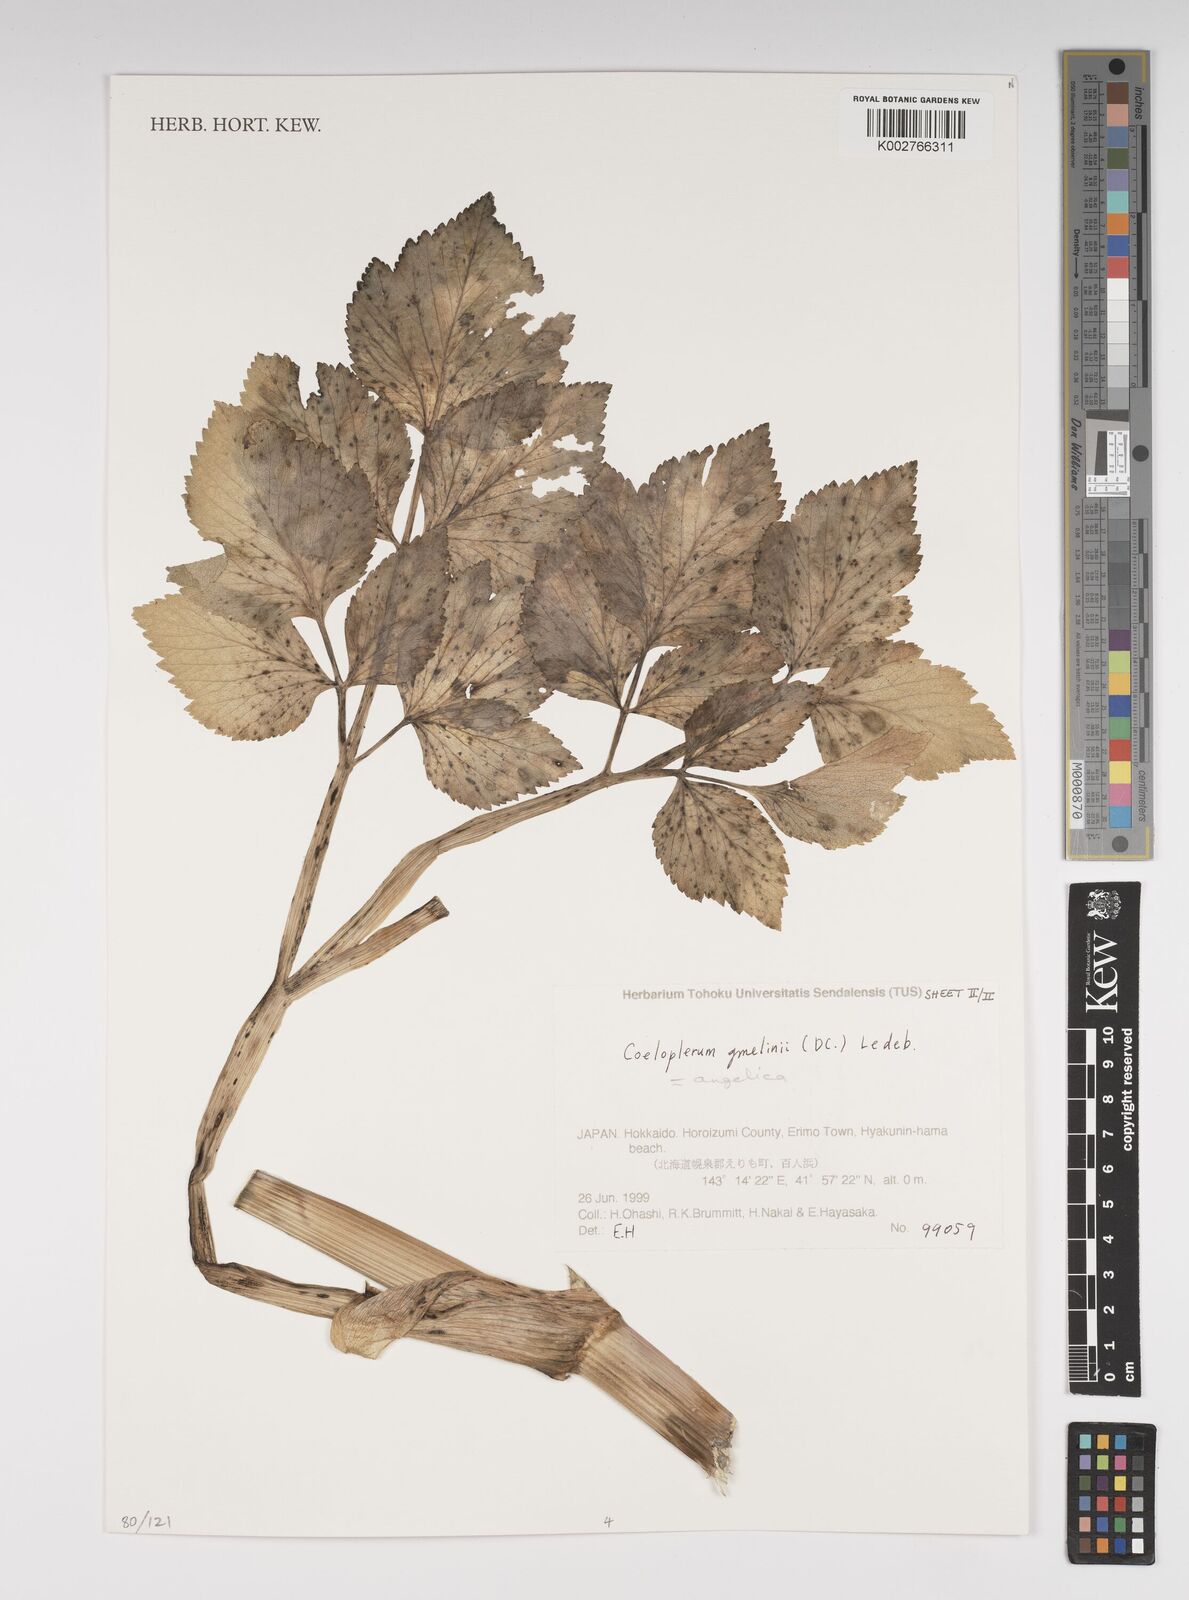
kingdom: Plantae
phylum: Tracheophyta
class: Magnoliopsida
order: Apiales
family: Apiaceae
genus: Angelica
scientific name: Angelica gmelinii
